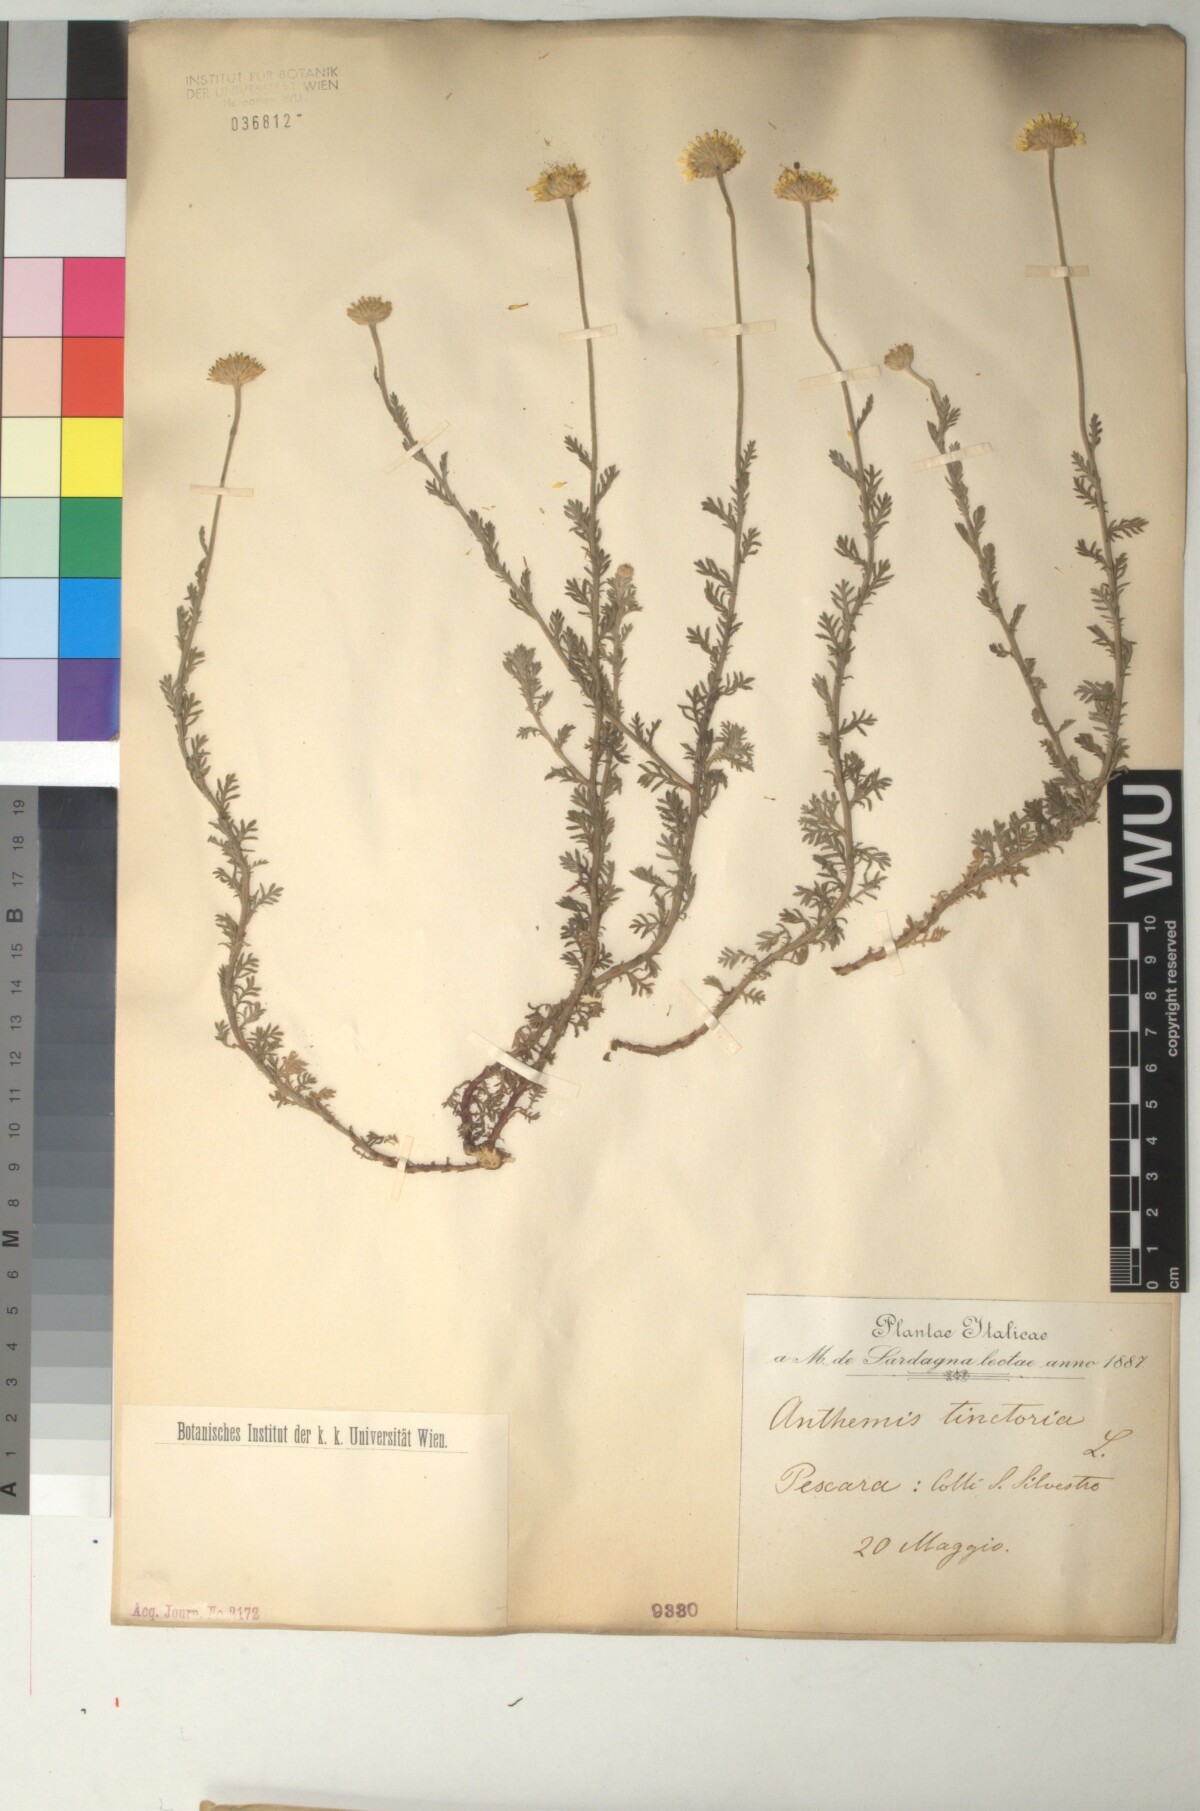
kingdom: Plantae
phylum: Tracheophyta
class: Magnoliopsida
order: Asterales
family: Asteraceae
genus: Cota
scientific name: Cota tinctoria
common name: Golden chamomile
